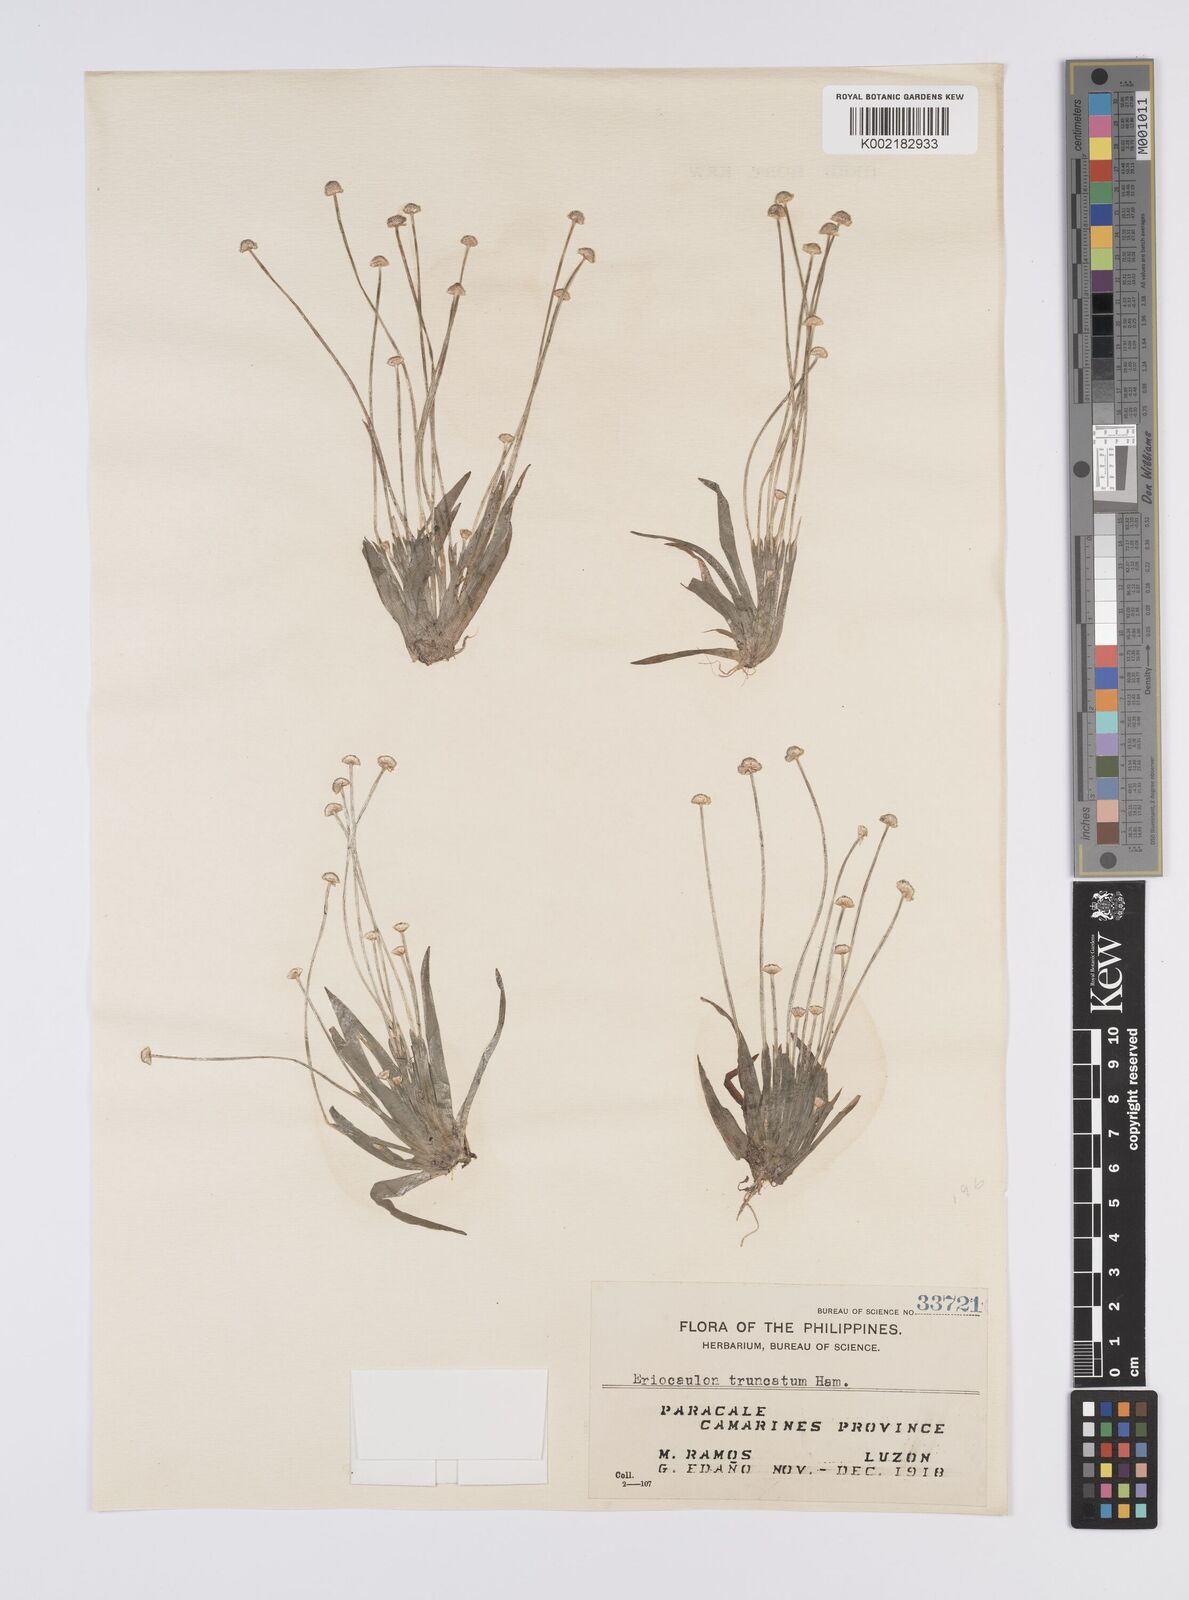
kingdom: Plantae
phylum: Tracheophyta
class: Liliopsida
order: Poales
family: Eriocaulaceae
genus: Eriocaulon
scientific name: Eriocaulon pseudotruncatum
